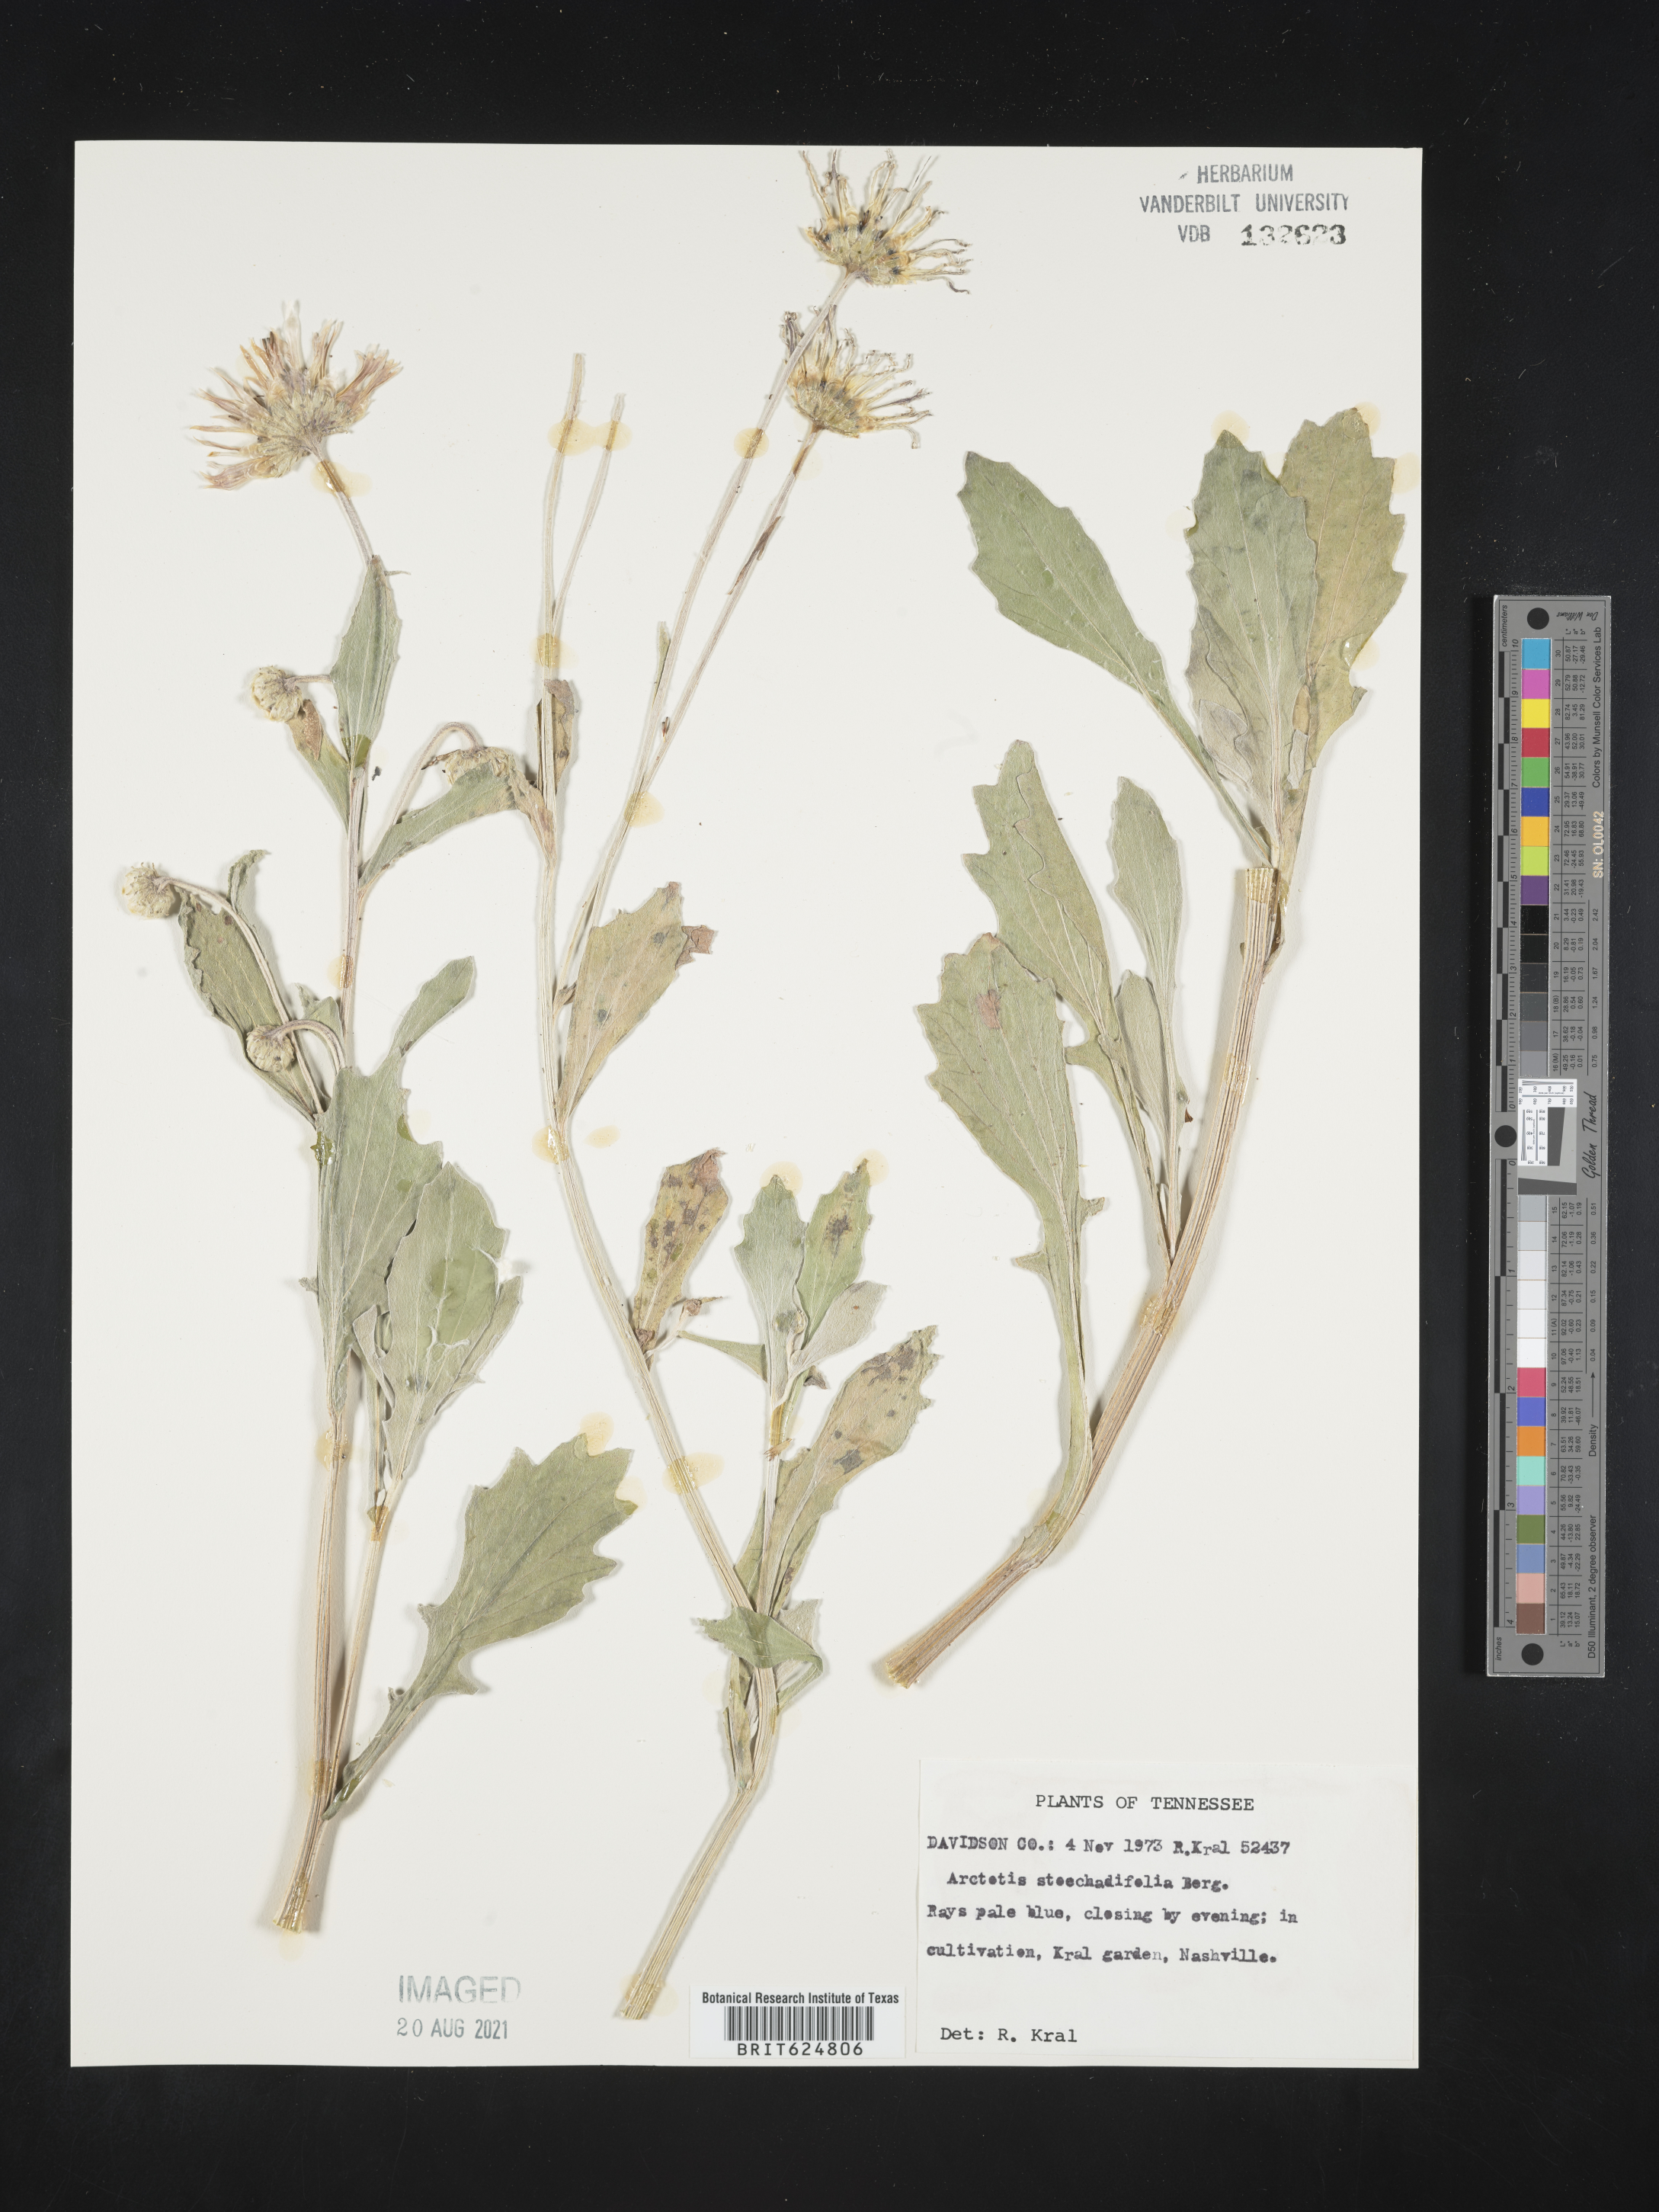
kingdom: Plantae
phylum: Tracheophyta
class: Magnoliopsida
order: Asterales
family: Asteraceae
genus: Arctotis
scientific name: Arctotis stoechadifolia
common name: African daisy
